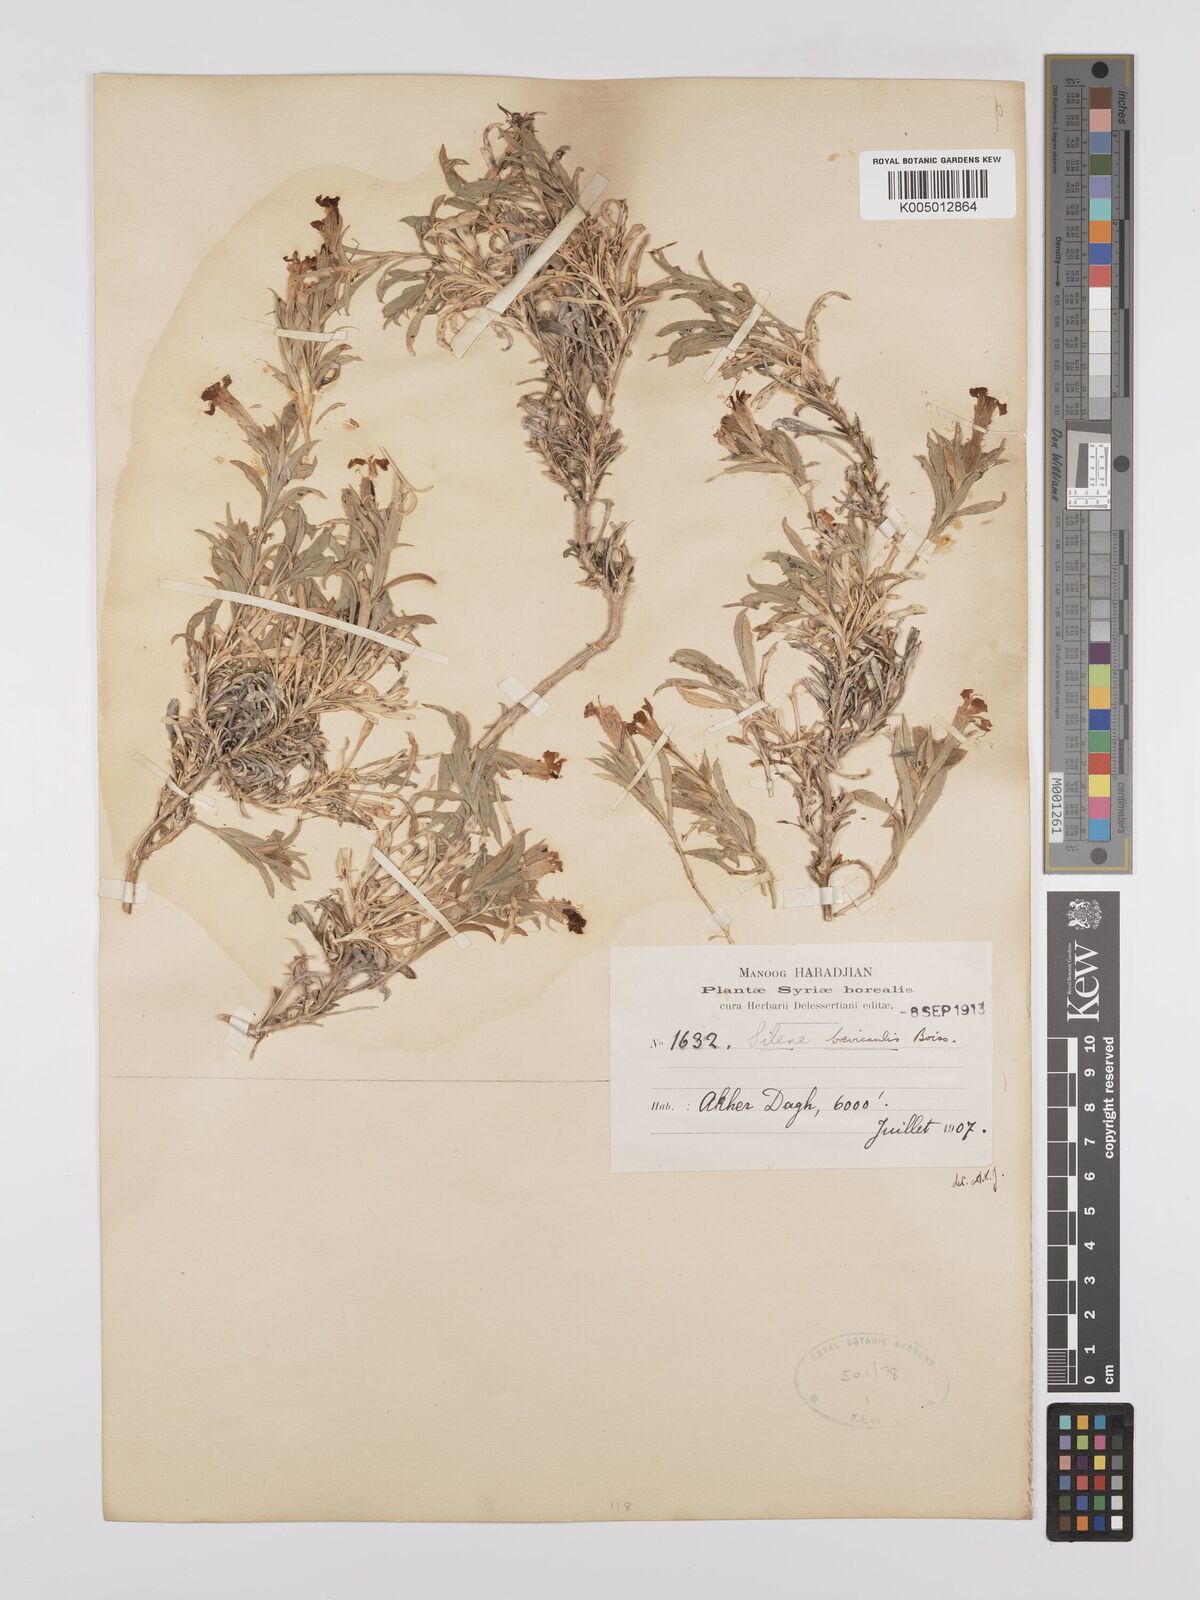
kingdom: Plantae
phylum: Tracheophyta
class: Magnoliopsida
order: Caryophyllales
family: Caryophyllaceae
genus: Silene
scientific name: Silene brevicaulis
